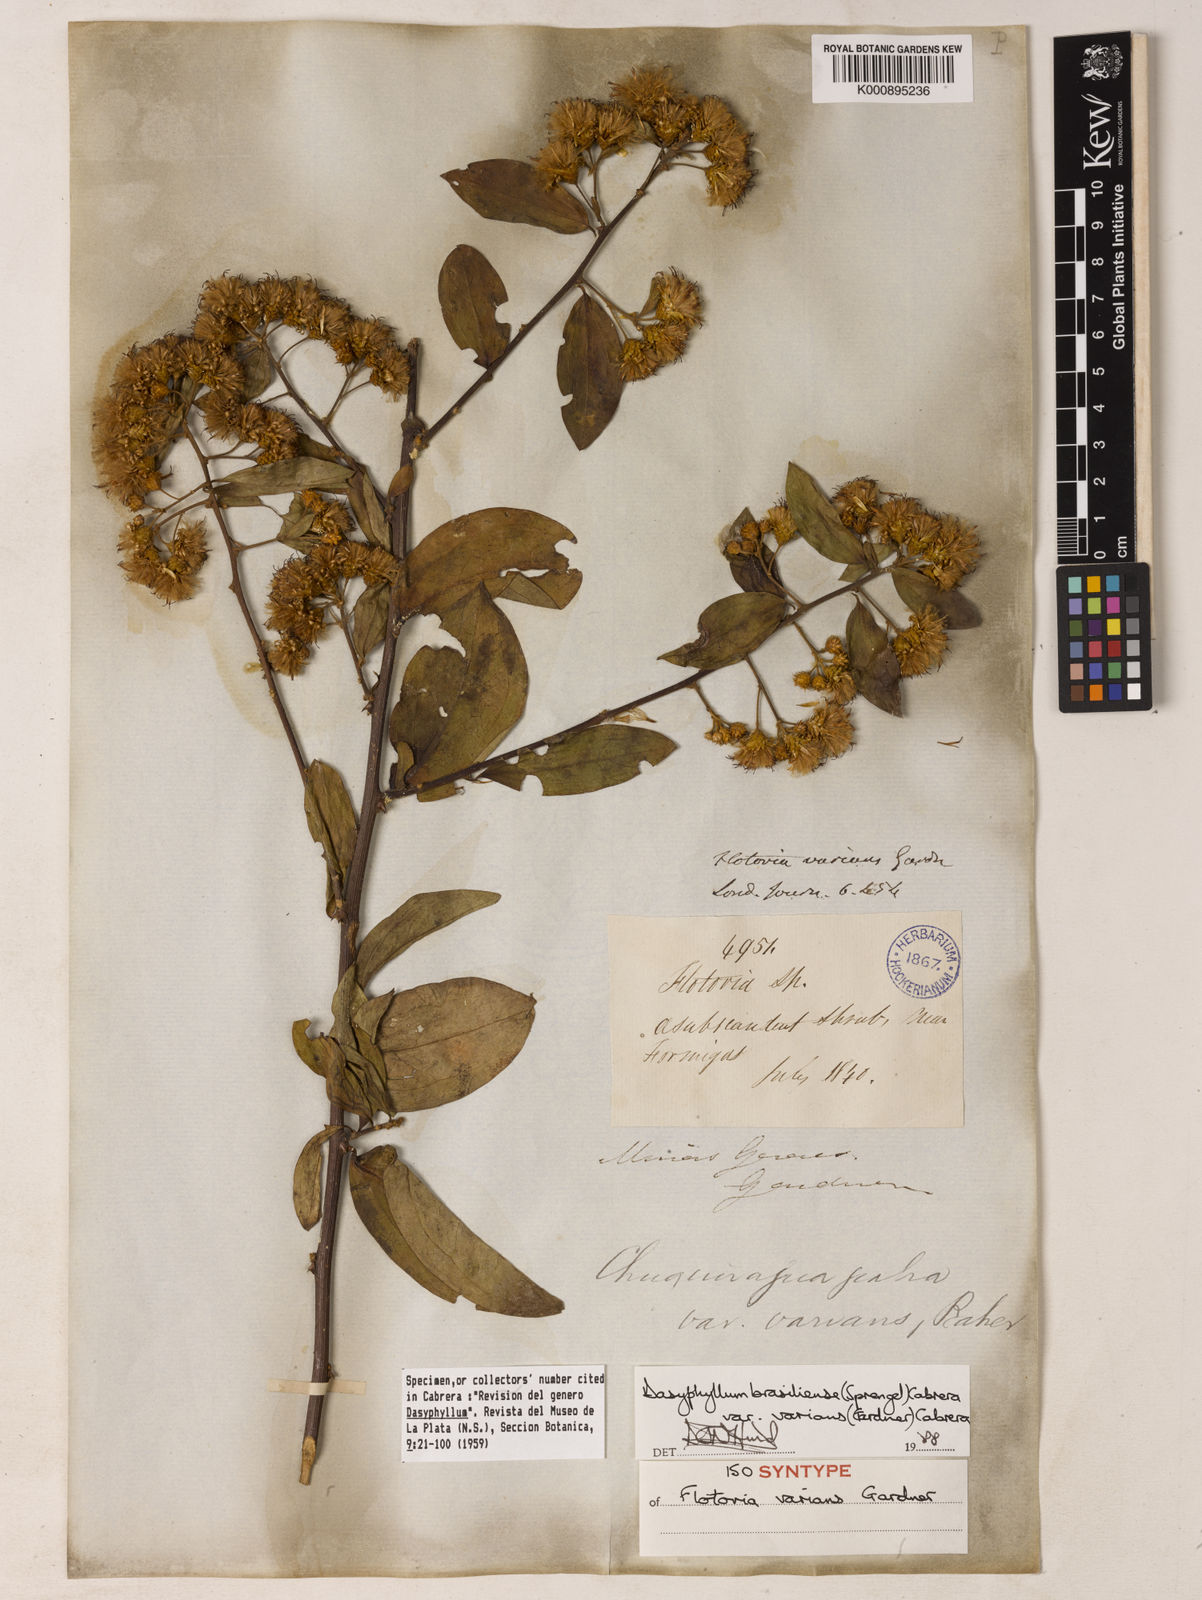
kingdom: Plantae
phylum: Tracheophyta
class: Magnoliopsida
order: Asterales
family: Asteraceae
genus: Dasyphyllum
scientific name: Dasyphyllum varians
